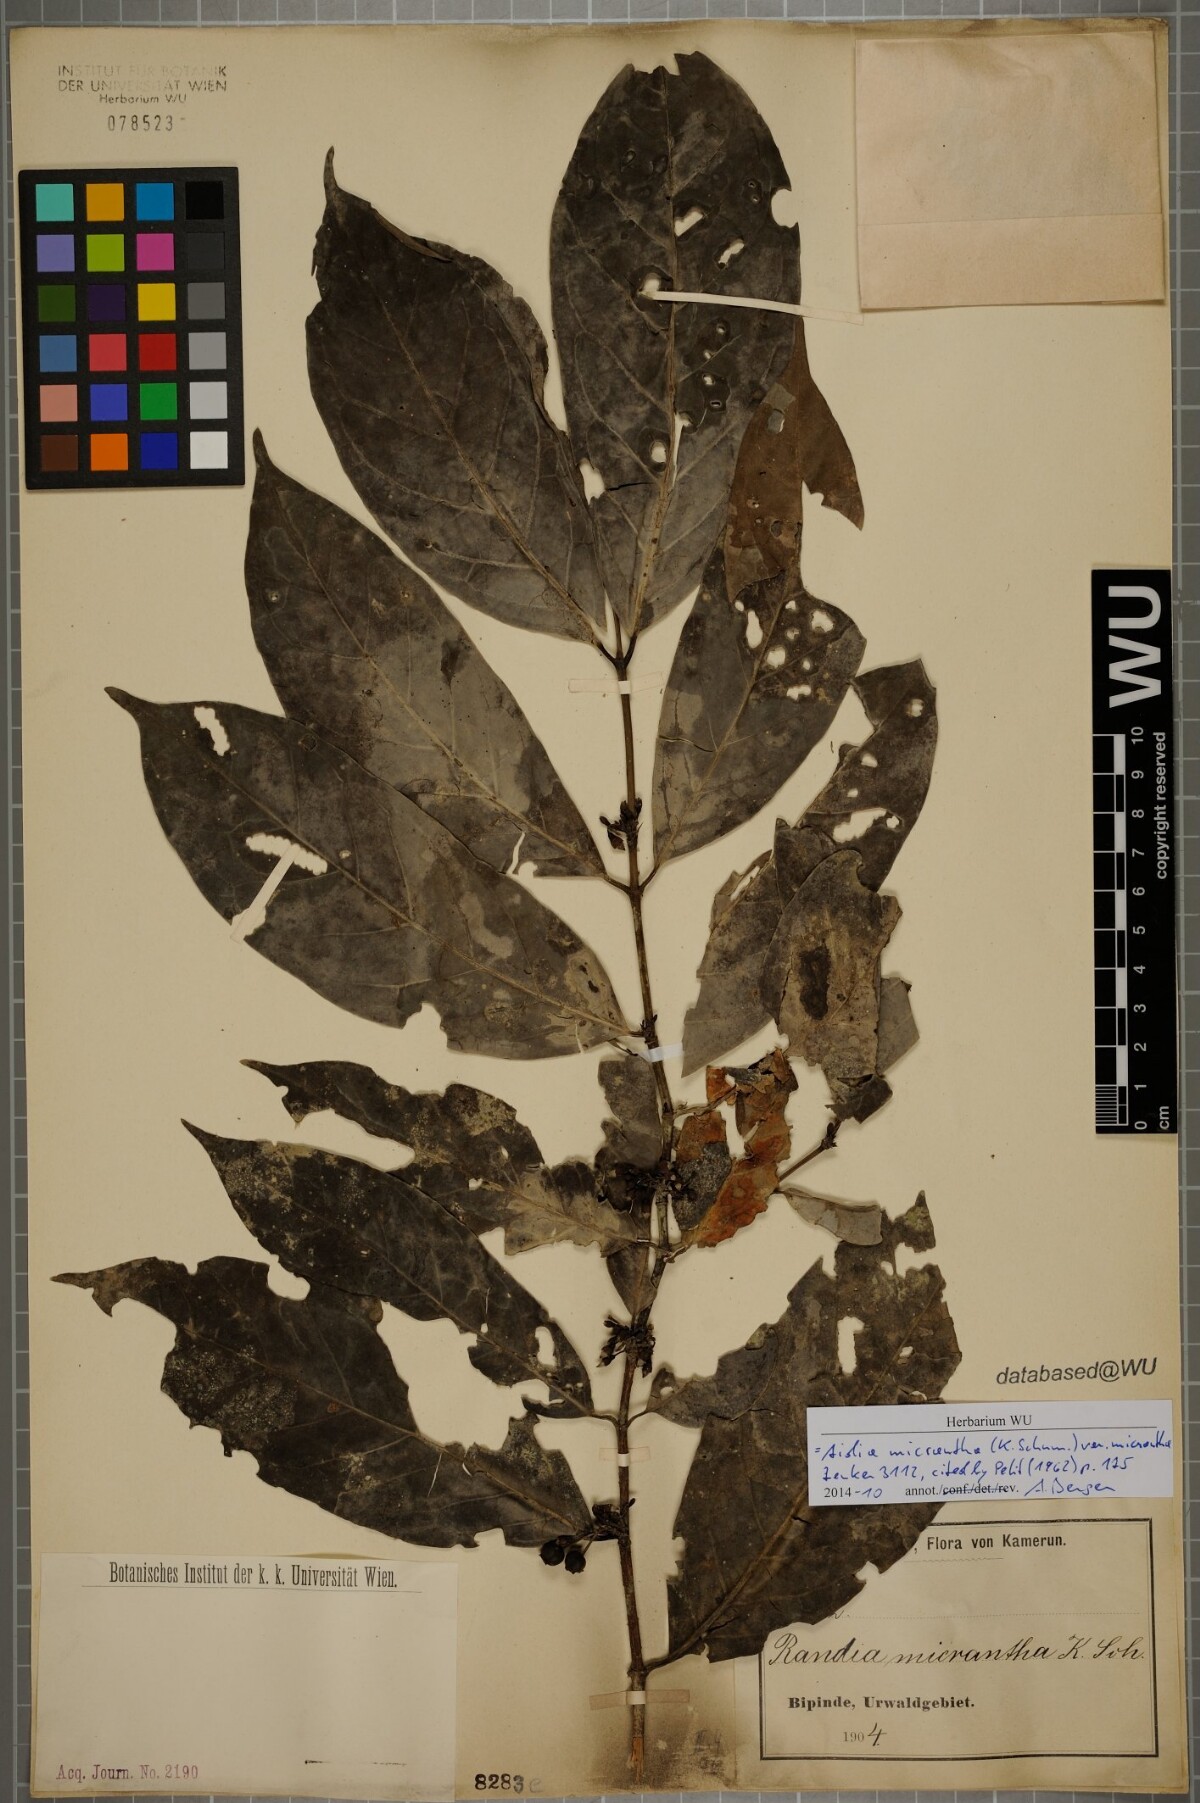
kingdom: Plantae
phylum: Tracheophyta
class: Magnoliopsida
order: Gentianales
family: Rubiaceae
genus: Aidia
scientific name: Aidia micrantha
